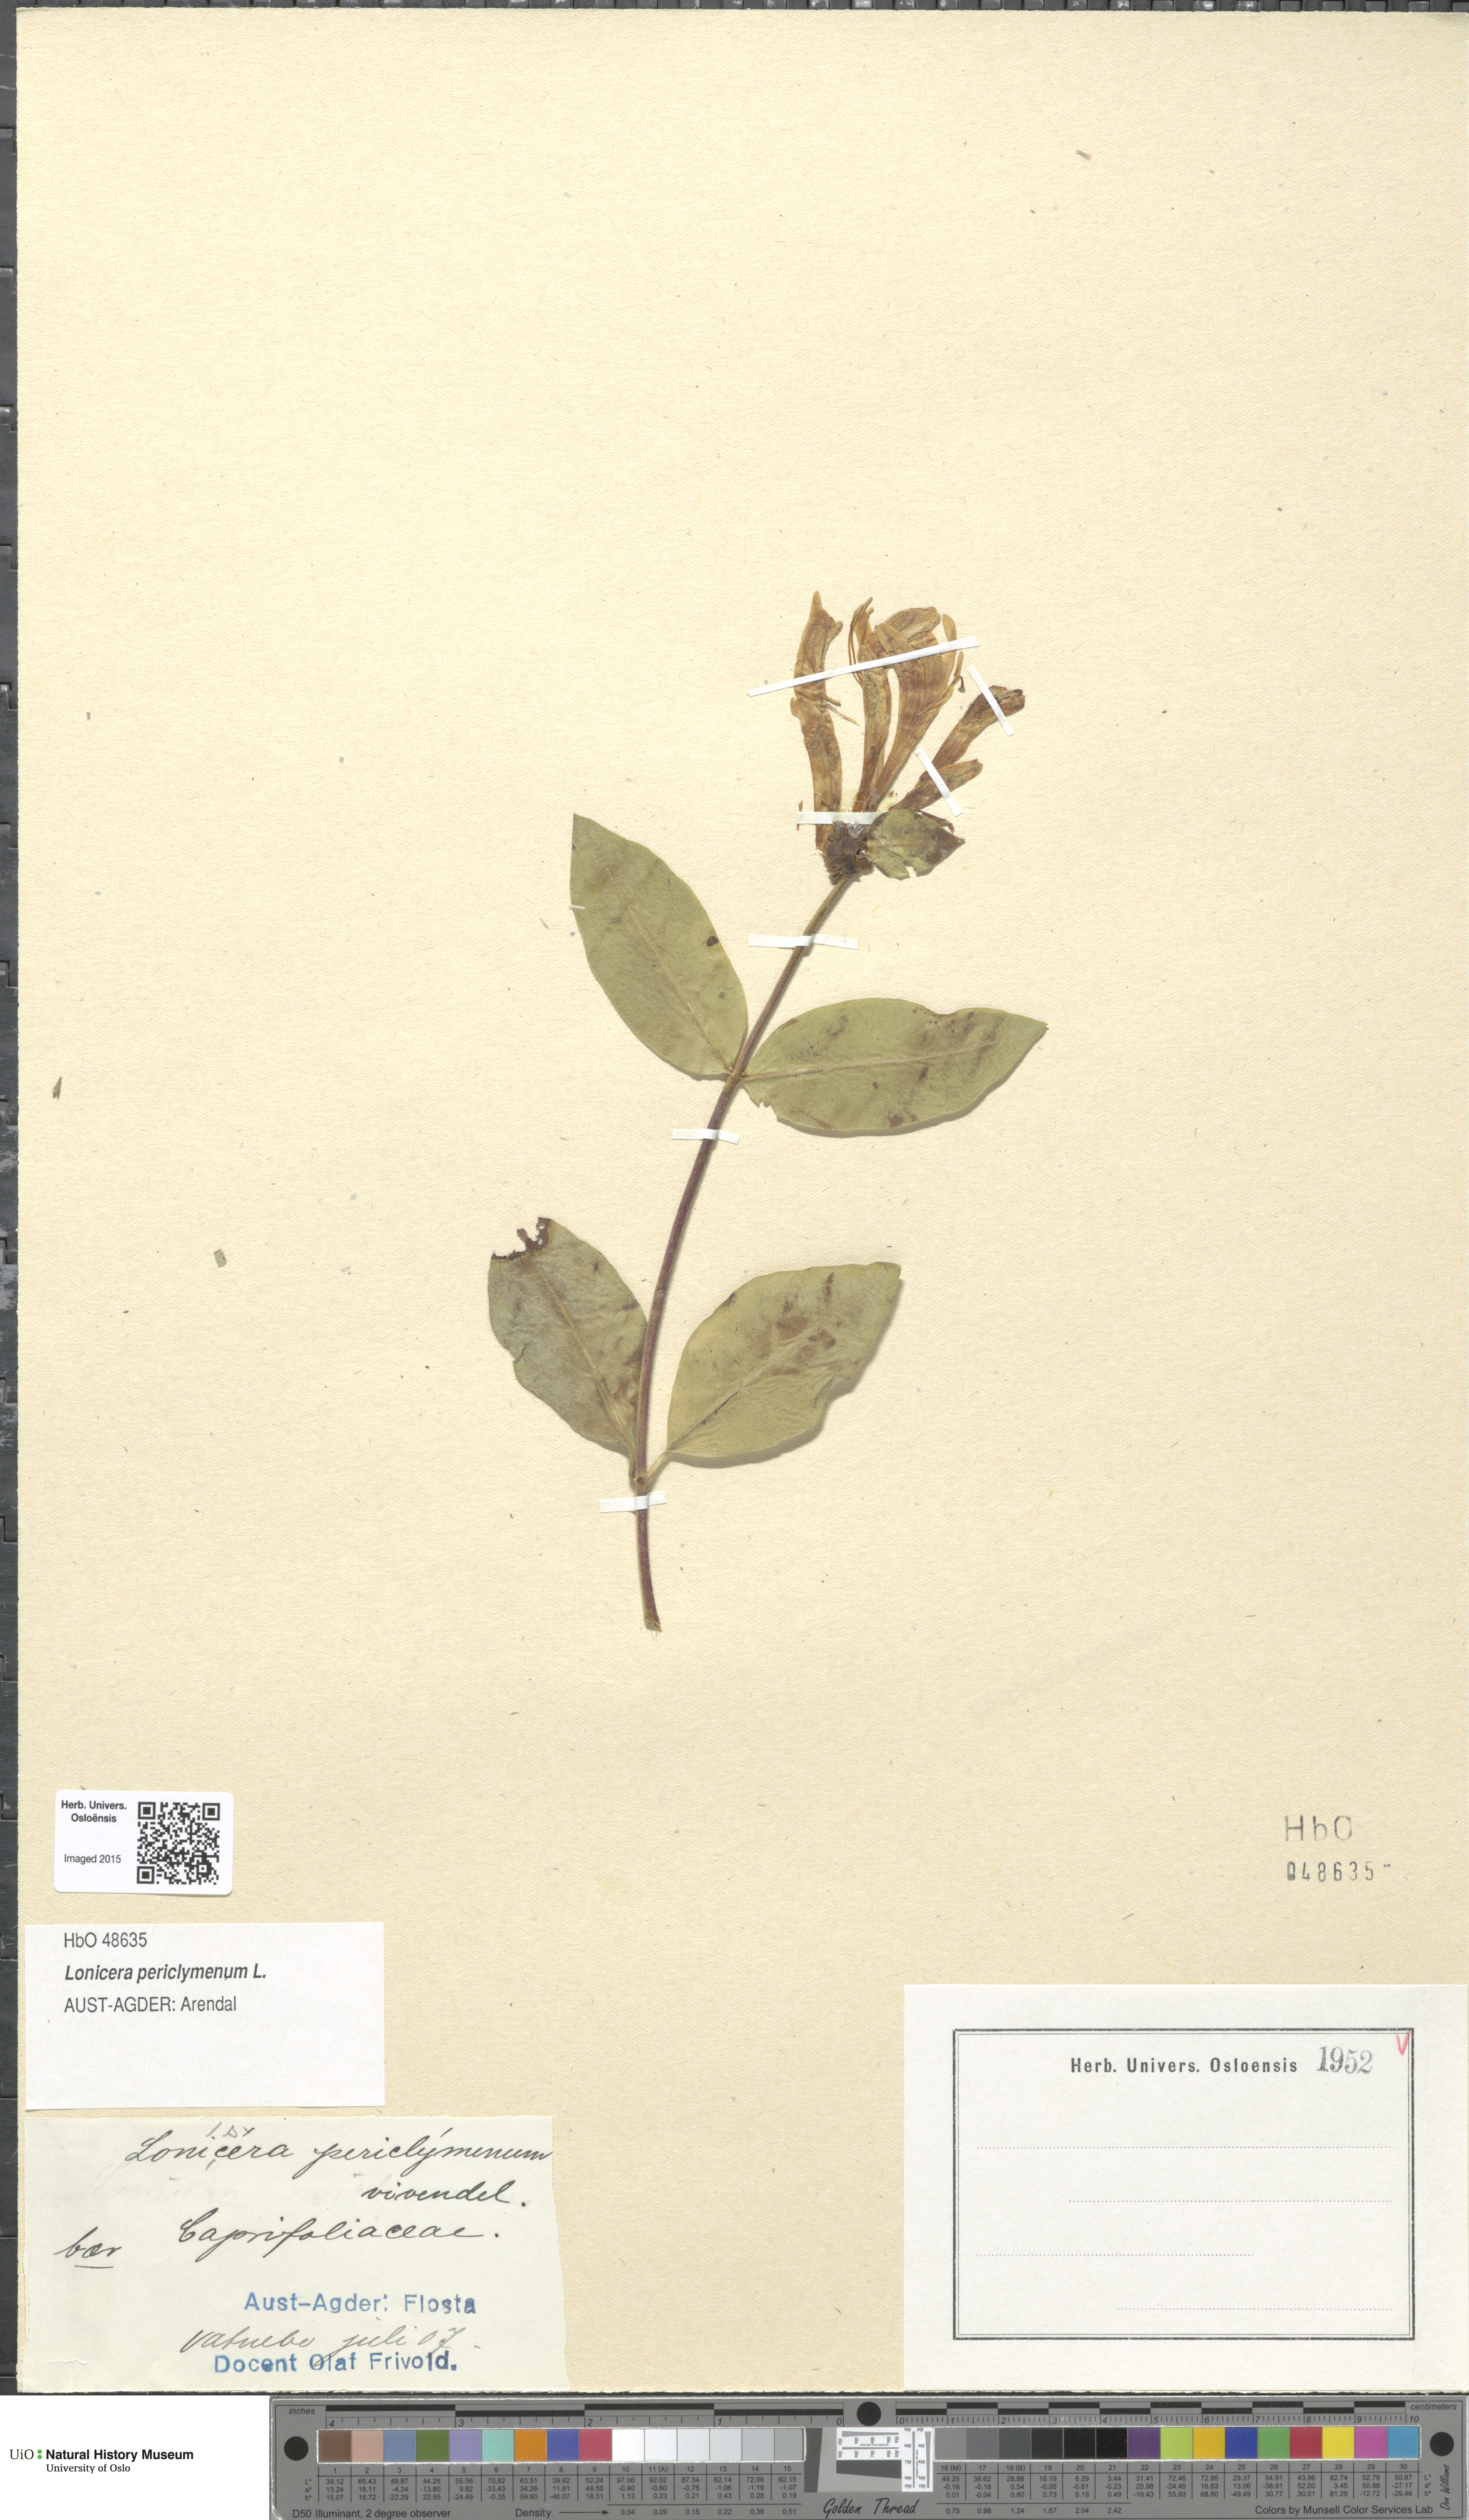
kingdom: Plantae
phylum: Tracheophyta
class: Magnoliopsida
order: Dipsacales
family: Caprifoliaceae
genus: Lonicera
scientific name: Lonicera periclymenum
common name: European honeysuckle
